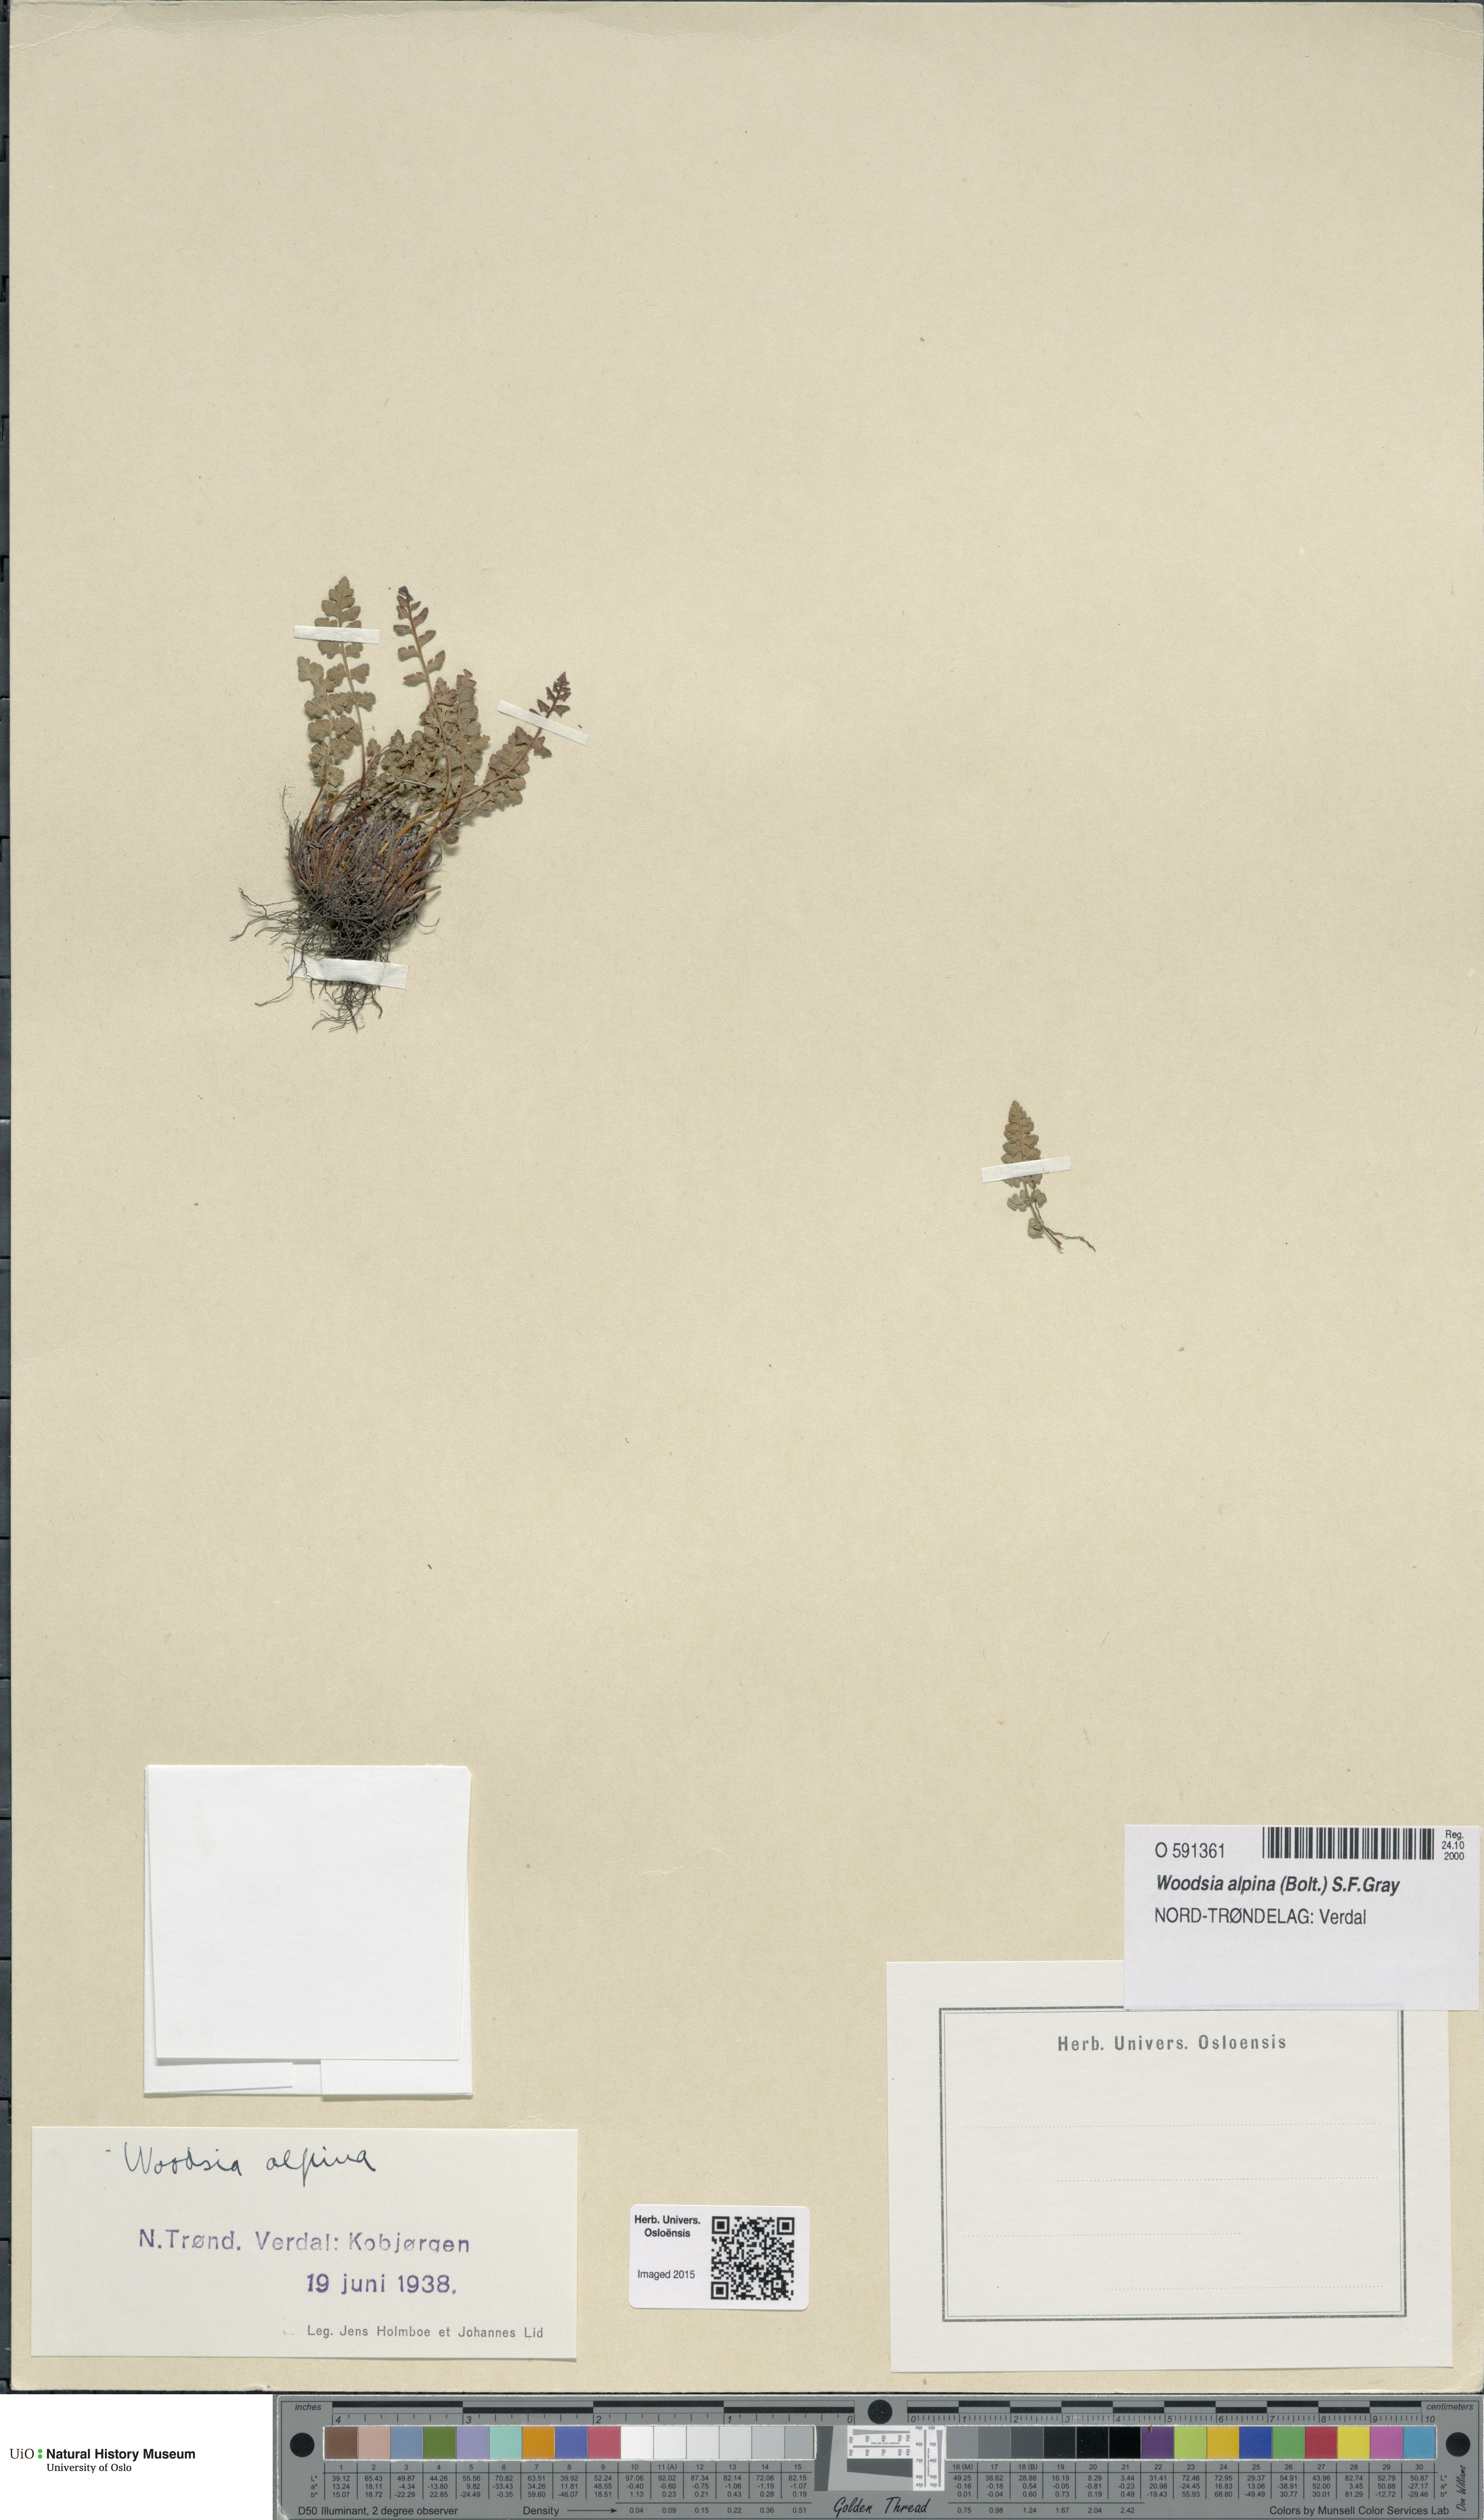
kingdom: Plantae
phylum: Tracheophyta
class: Polypodiopsida
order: Polypodiales
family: Woodsiaceae
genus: Woodsia
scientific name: Woodsia alpina
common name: Alpine woodsia
